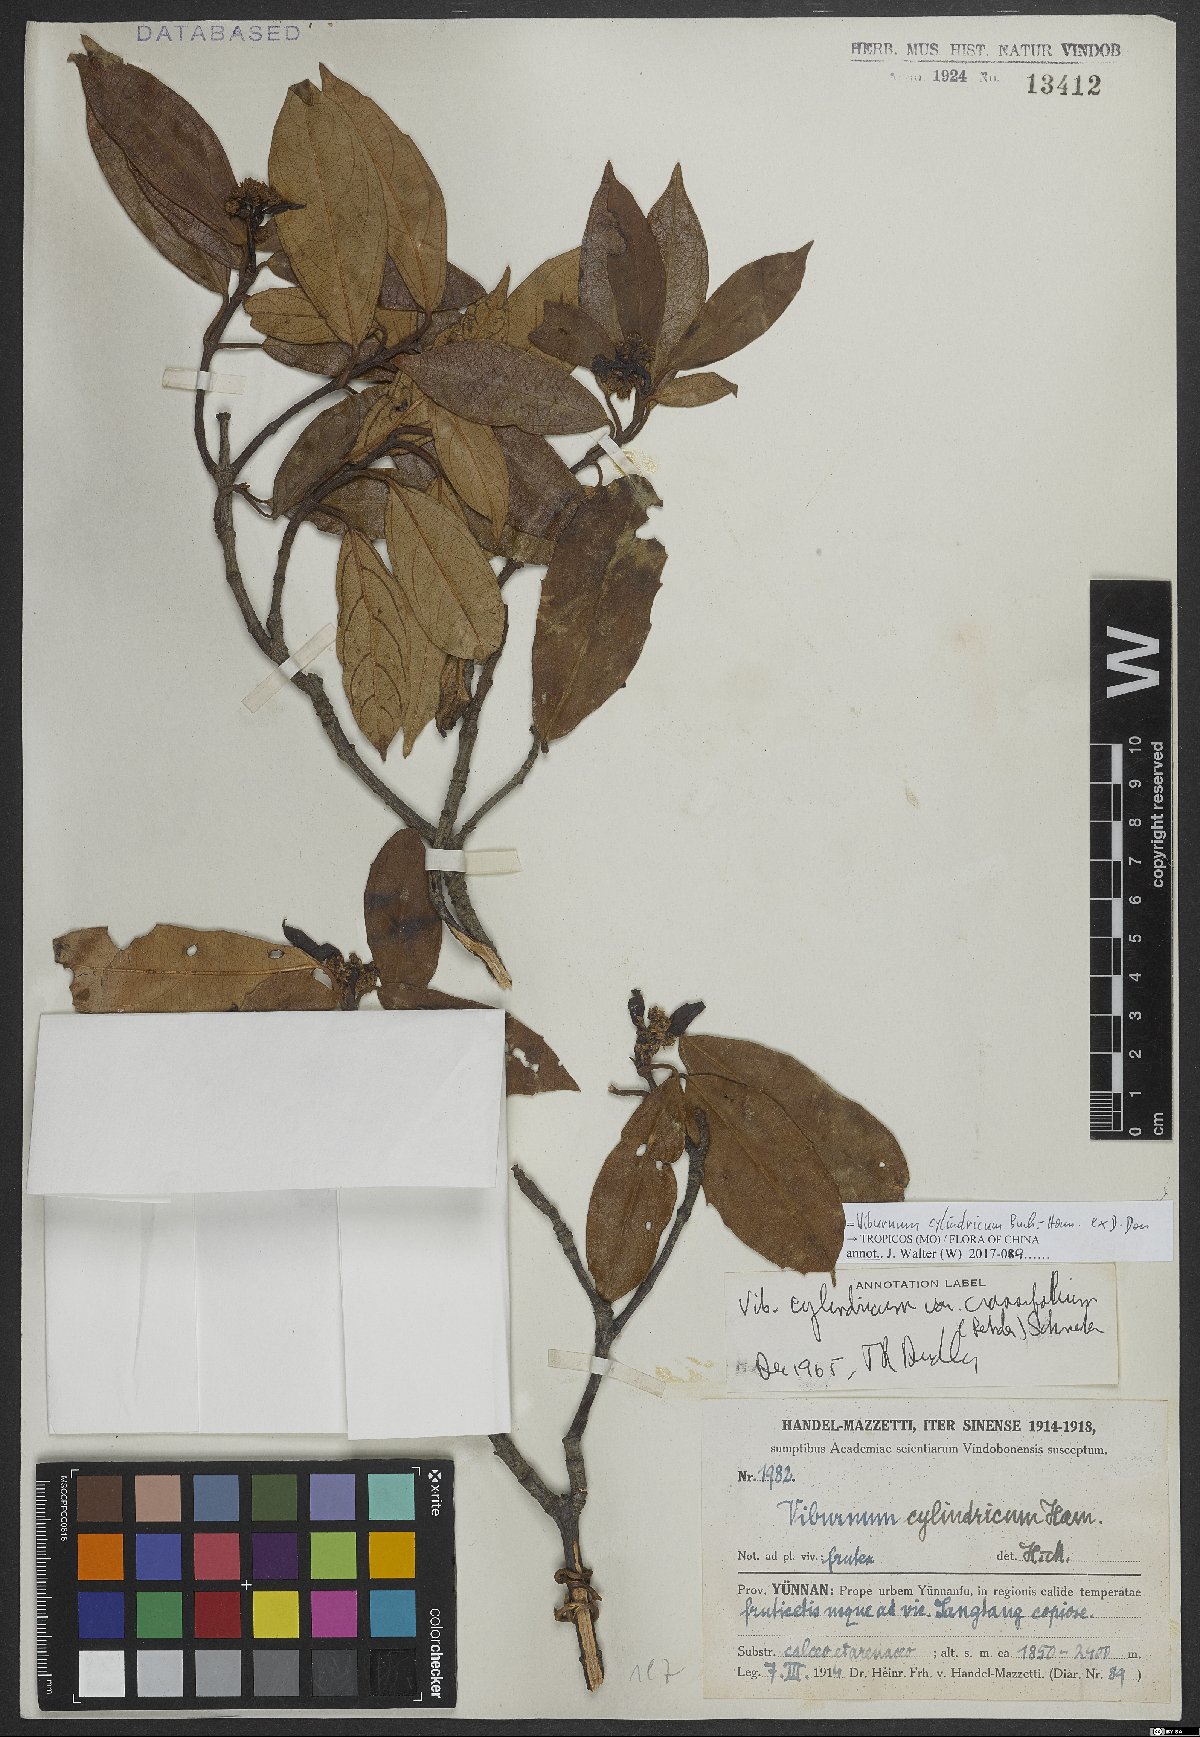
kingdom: Plantae
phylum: Tracheophyta
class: Magnoliopsida
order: Dipsacales
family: Viburnaceae
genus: Viburnum
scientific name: Viburnum cylindricum
